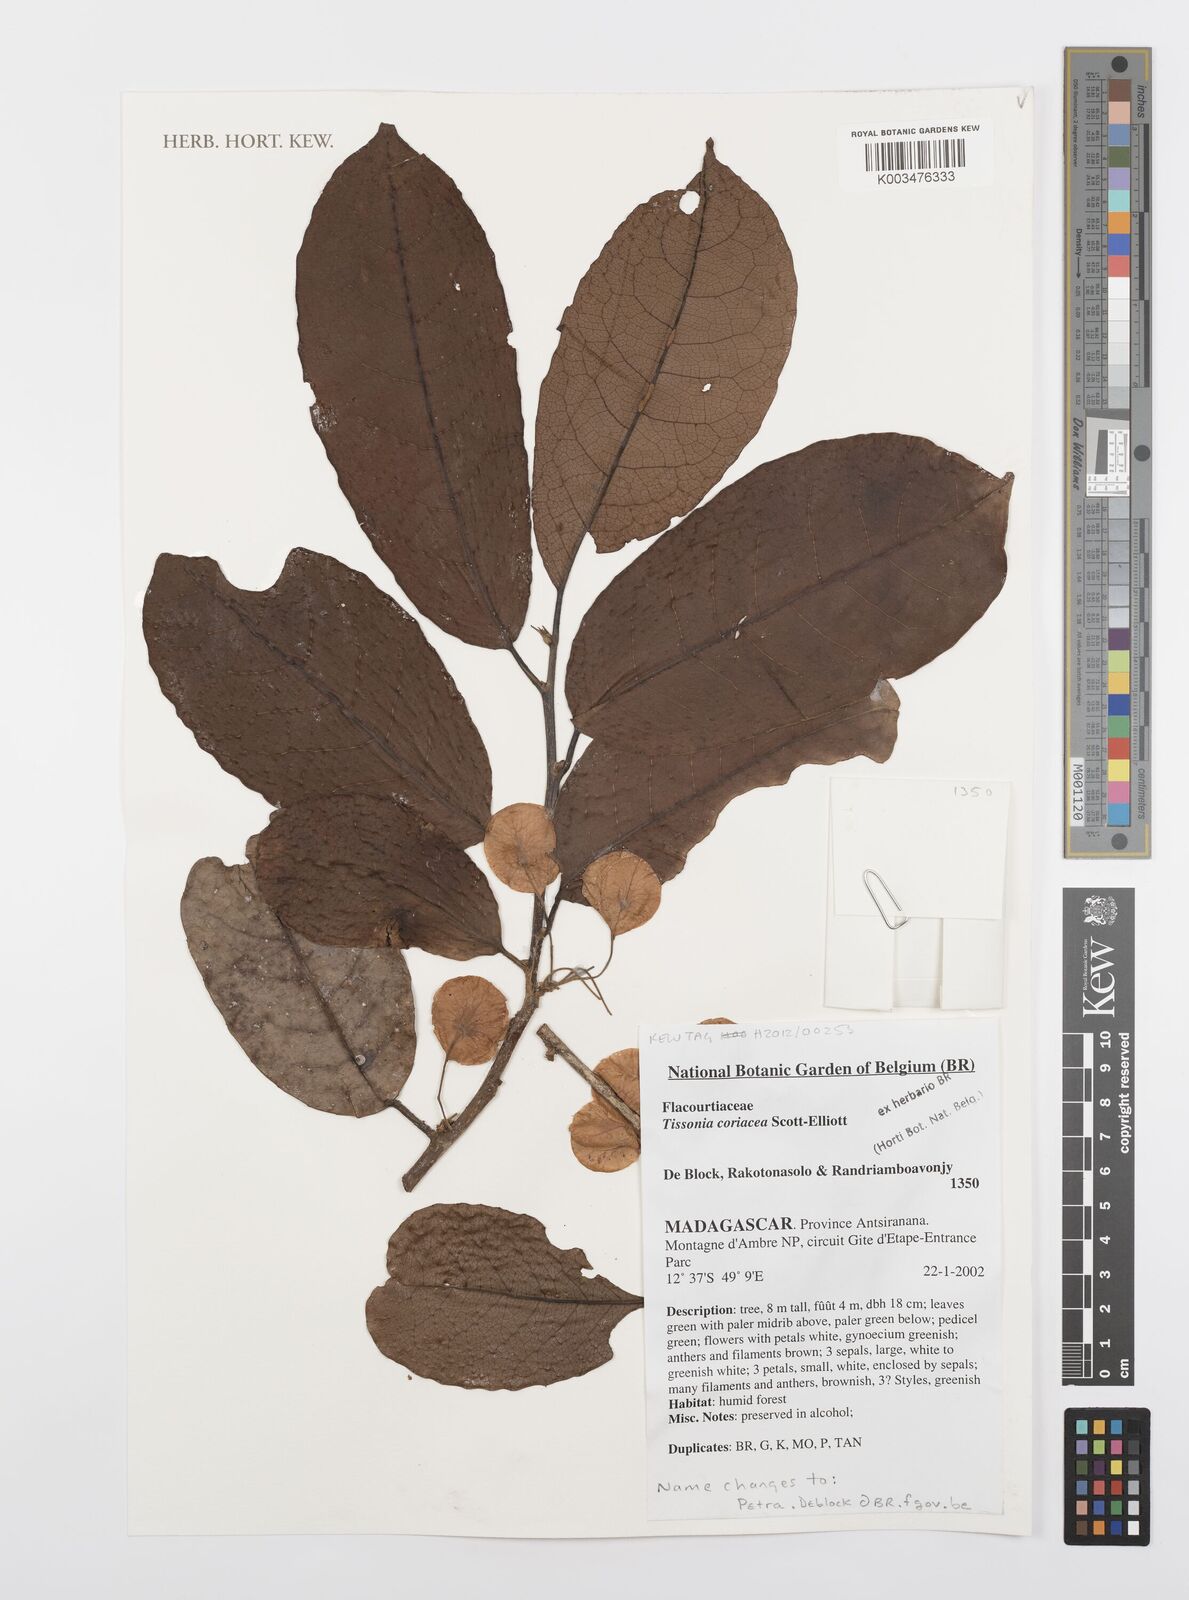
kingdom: Plantae
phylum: Tracheophyta
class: Magnoliopsida
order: Malpighiales
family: Salicaceae
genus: Tisonia
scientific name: Tisonia coriacea
